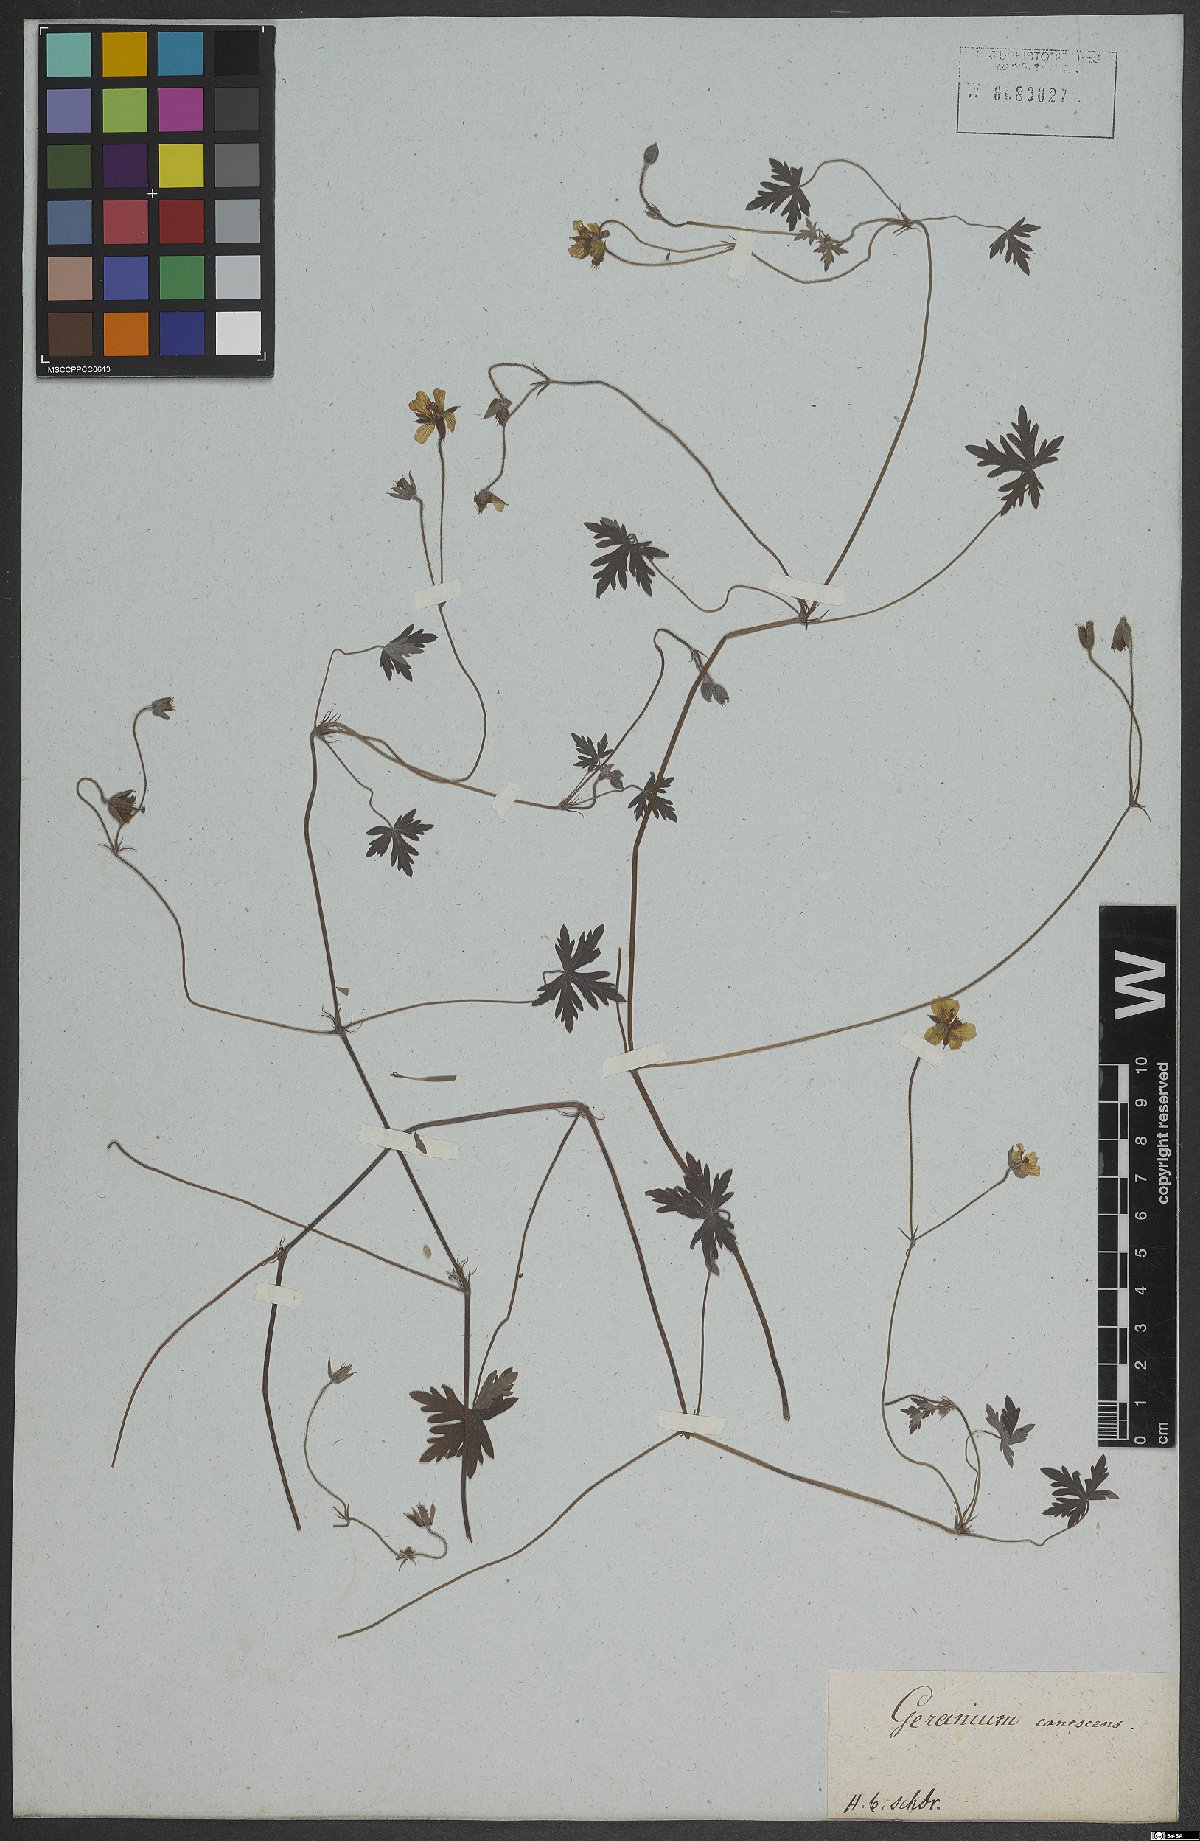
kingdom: Plantae
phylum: Tracheophyta
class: Magnoliopsida
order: Geraniales
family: Geraniaceae
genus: Geranium
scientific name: Geranium
